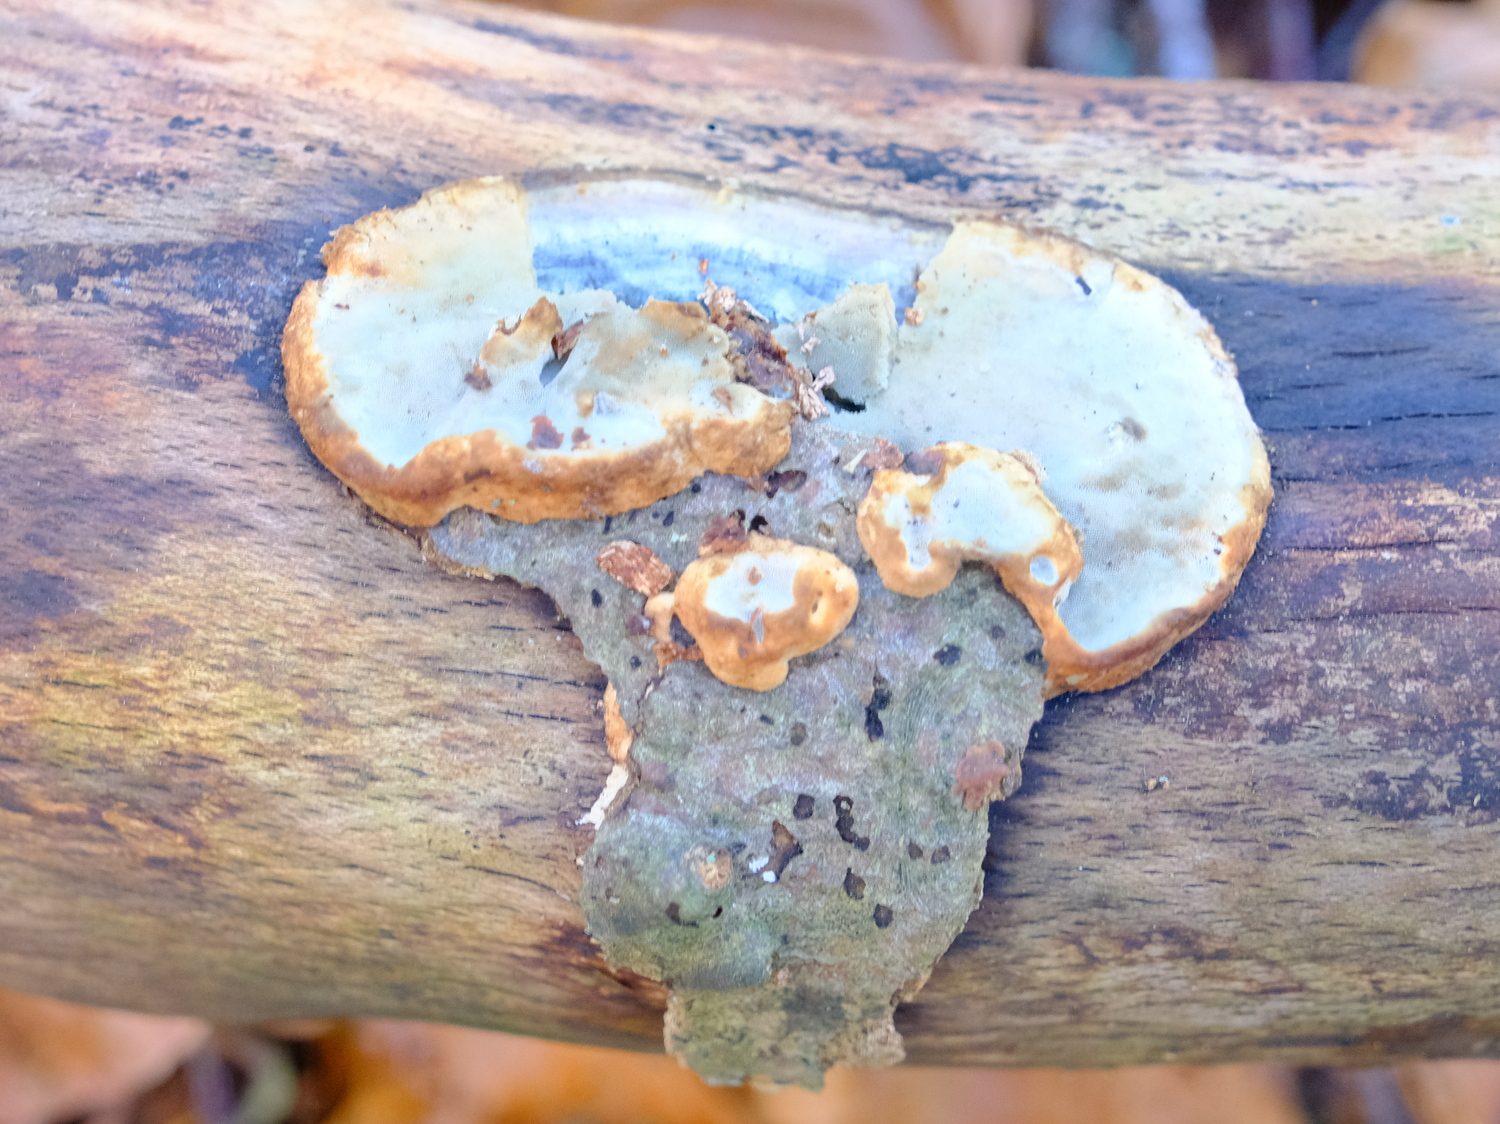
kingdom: Fungi
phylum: Basidiomycota
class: Agaricomycetes
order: Polyporales
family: Incrustoporiaceae
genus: Skeletocutis
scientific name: Skeletocutis nemoralis
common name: stor krystalporesvamp
